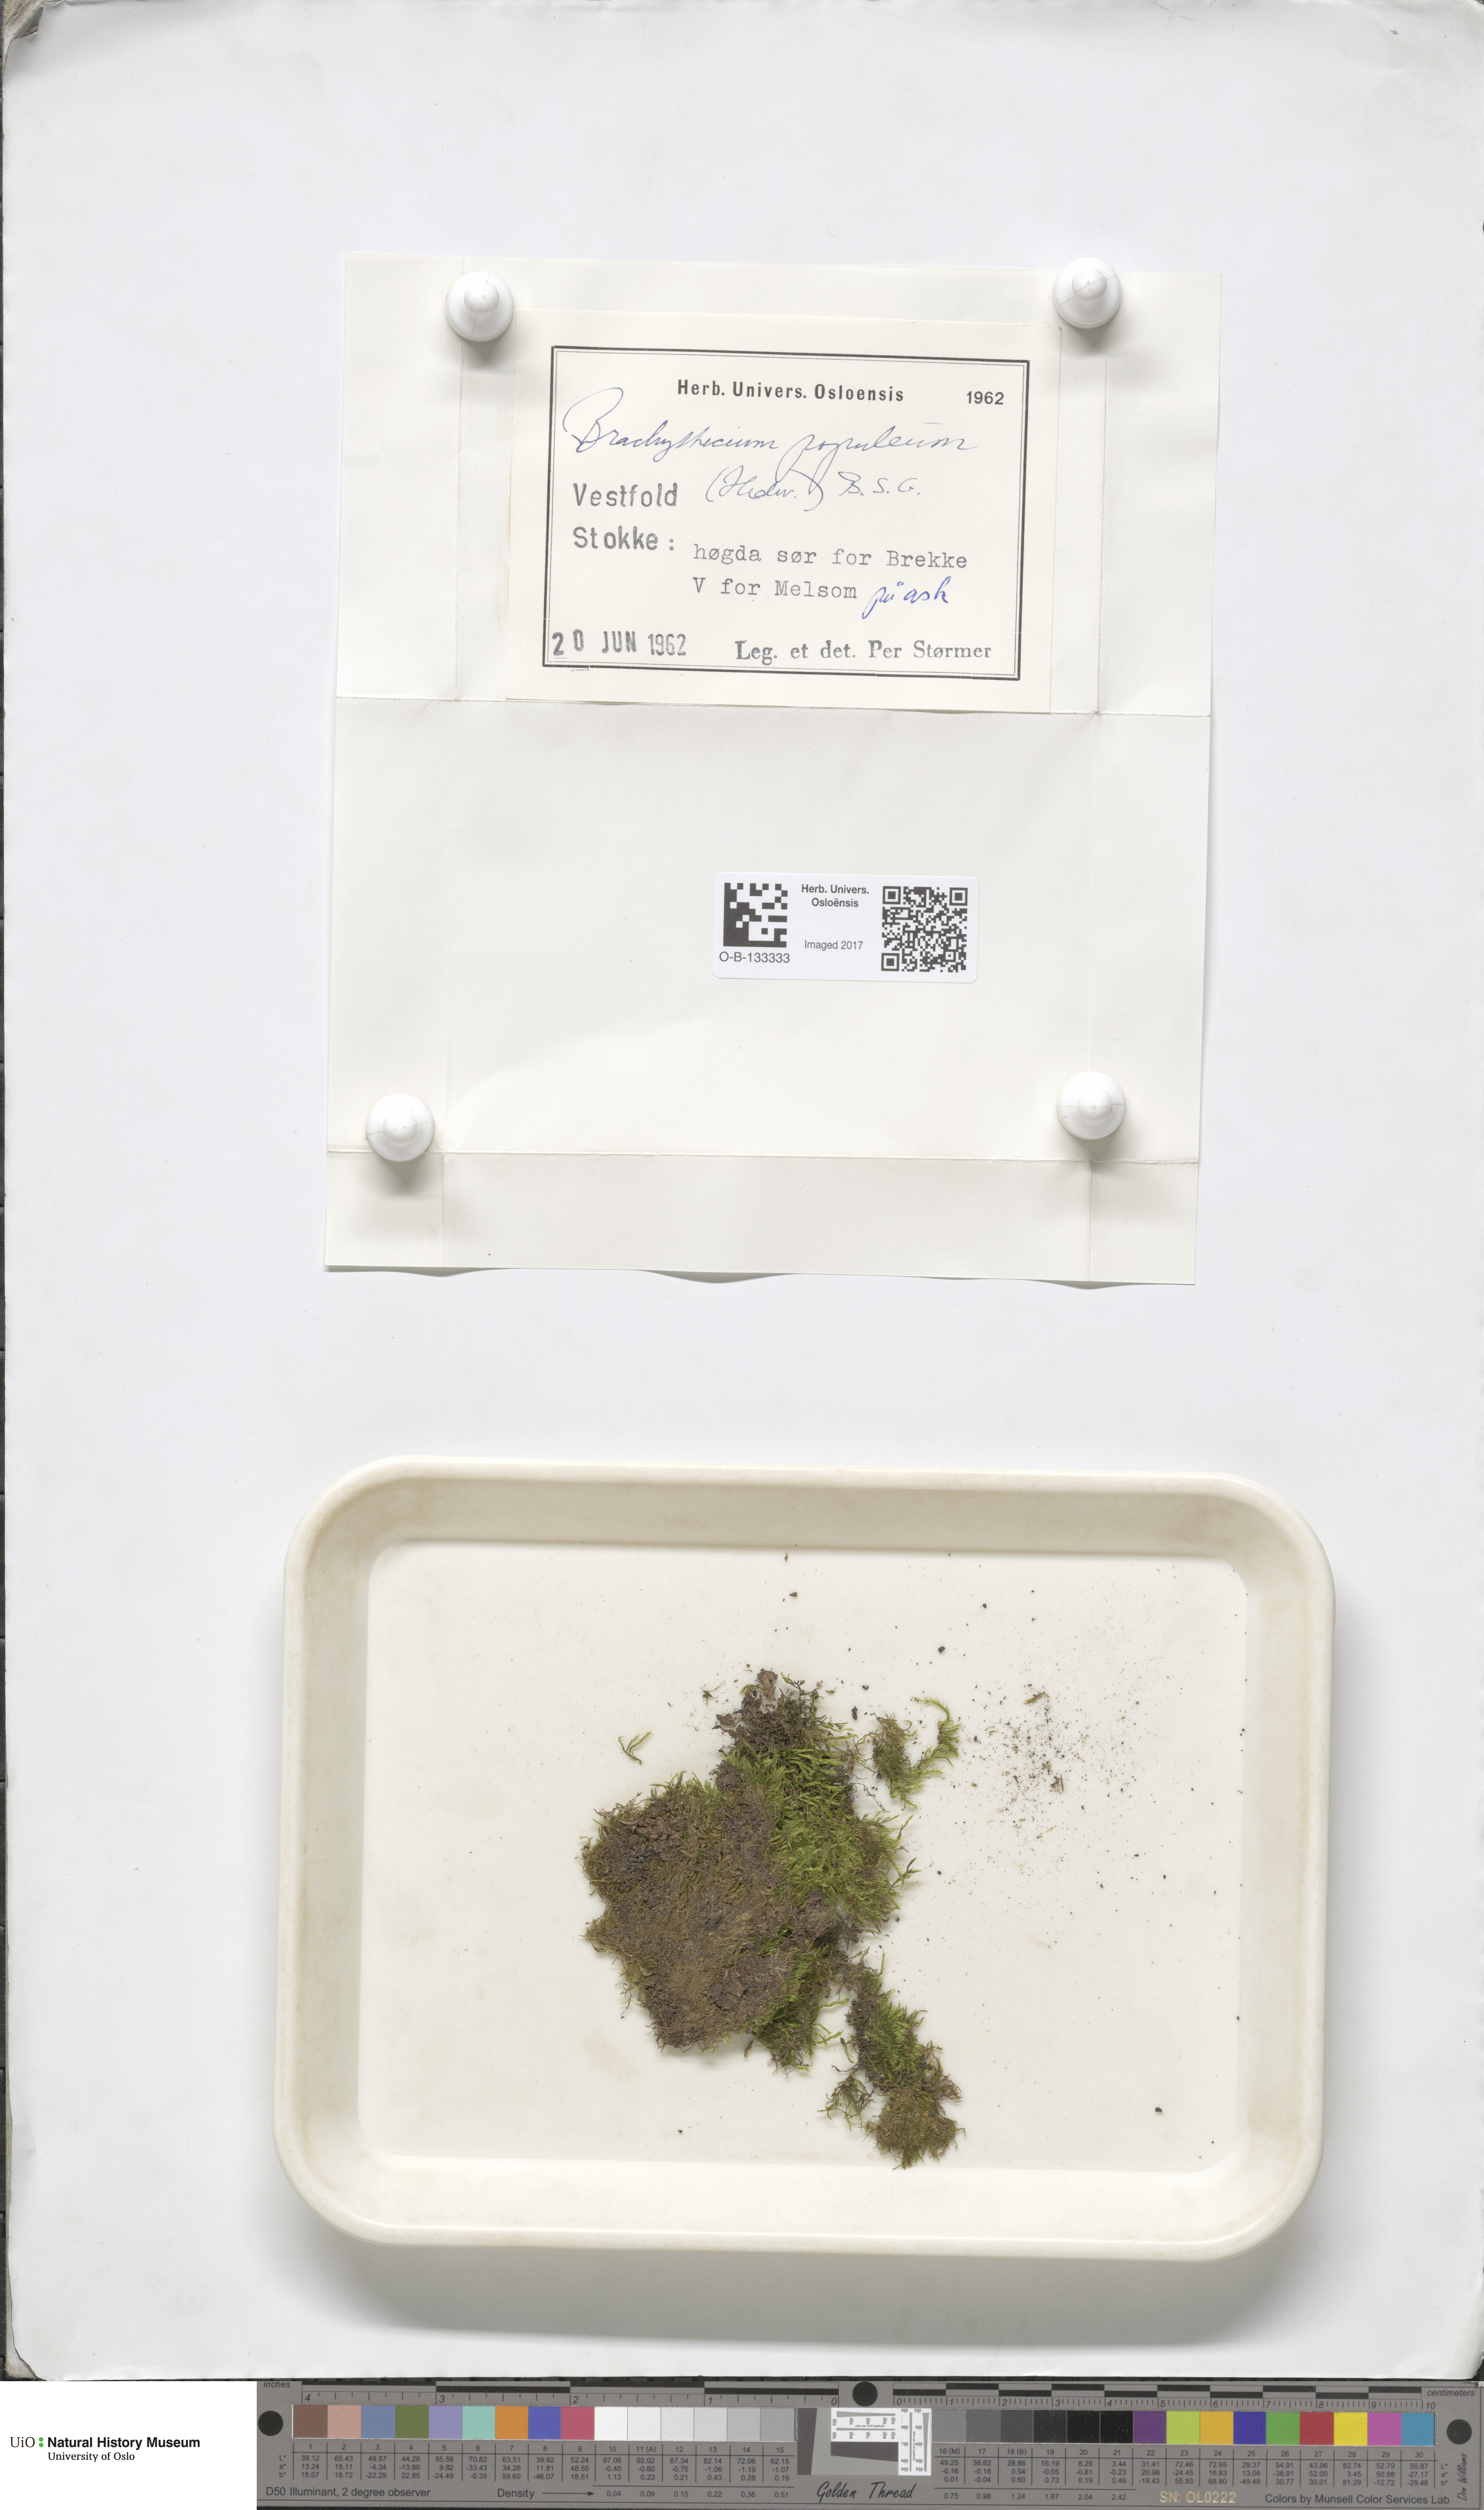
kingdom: Plantae
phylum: Bryophyta
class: Bryopsida
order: Hypnales
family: Brachytheciaceae
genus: Sciuro-hypnum
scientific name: Sciuro-hypnum plumosum
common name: Rusty feather-moss
